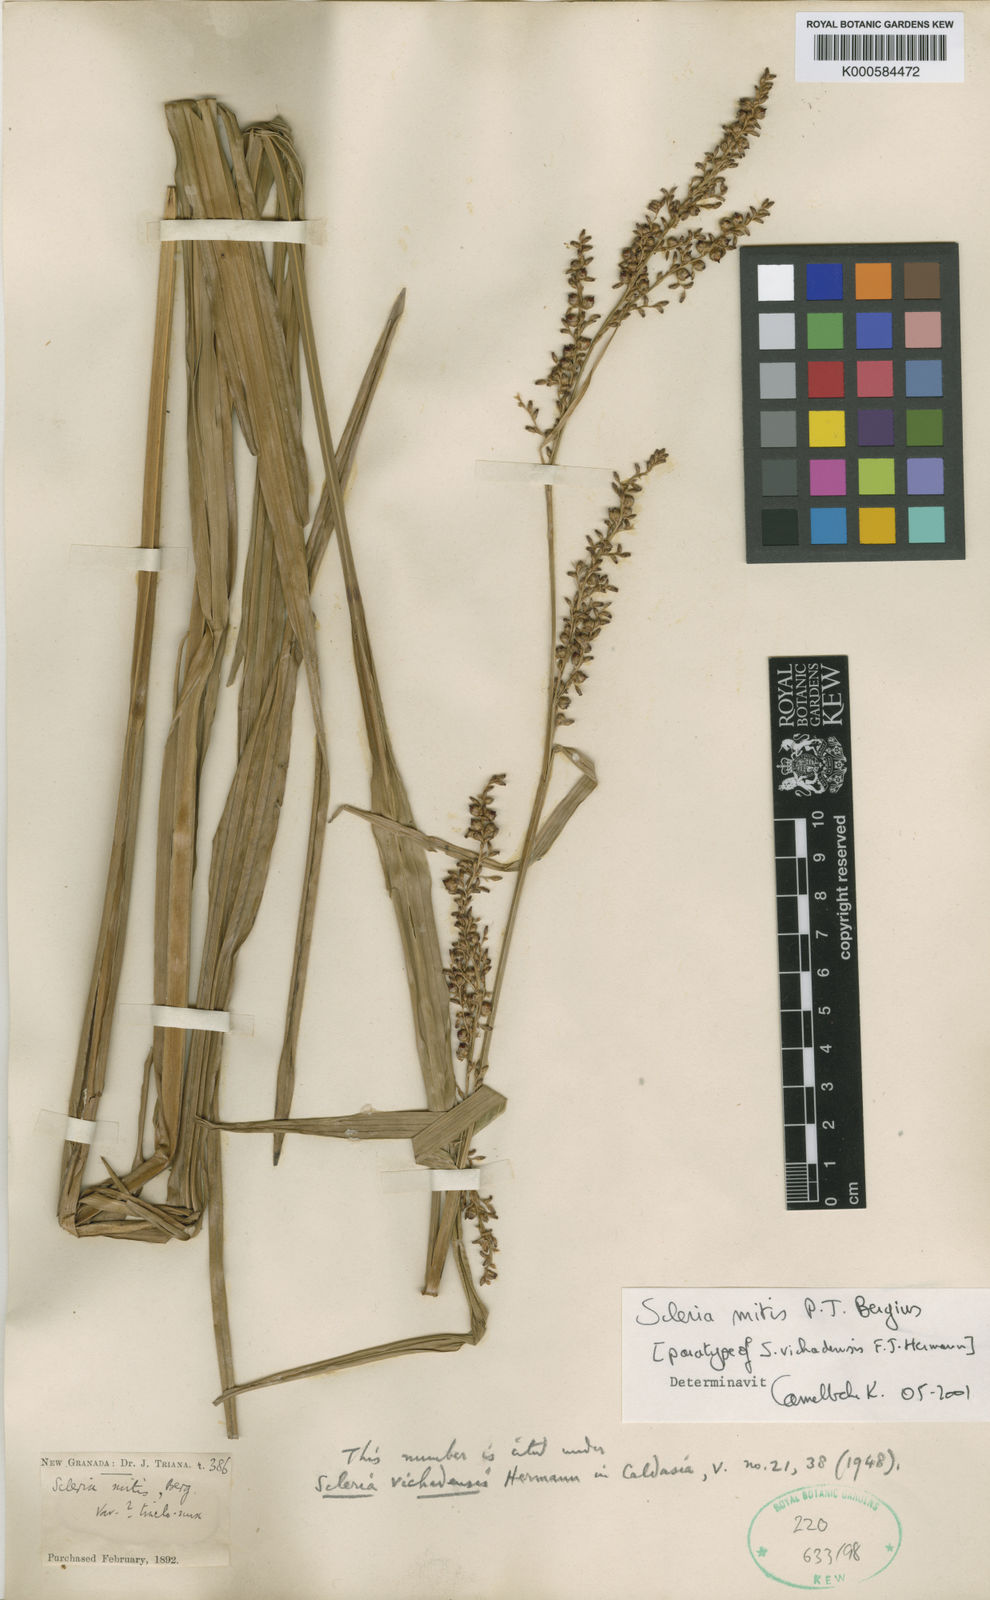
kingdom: Plantae
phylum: Tracheophyta
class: Liliopsida
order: Poales
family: Cyperaceae
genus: Scleria
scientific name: Scleria mitis
